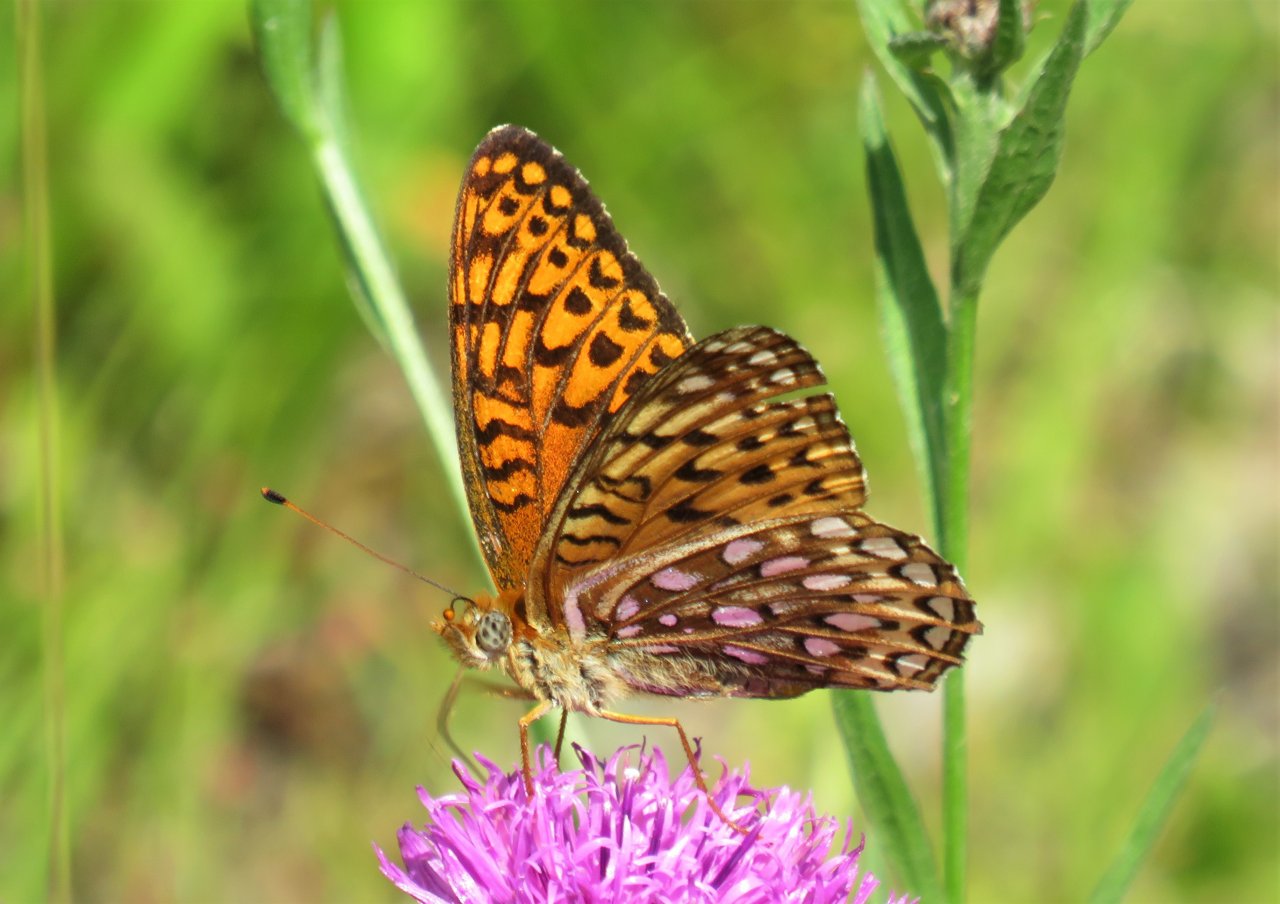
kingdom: Animalia
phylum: Arthropoda
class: Insecta
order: Lepidoptera
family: Nymphalidae
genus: Speyeria
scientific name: Speyeria atlantis
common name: Atlantis Fritillary
